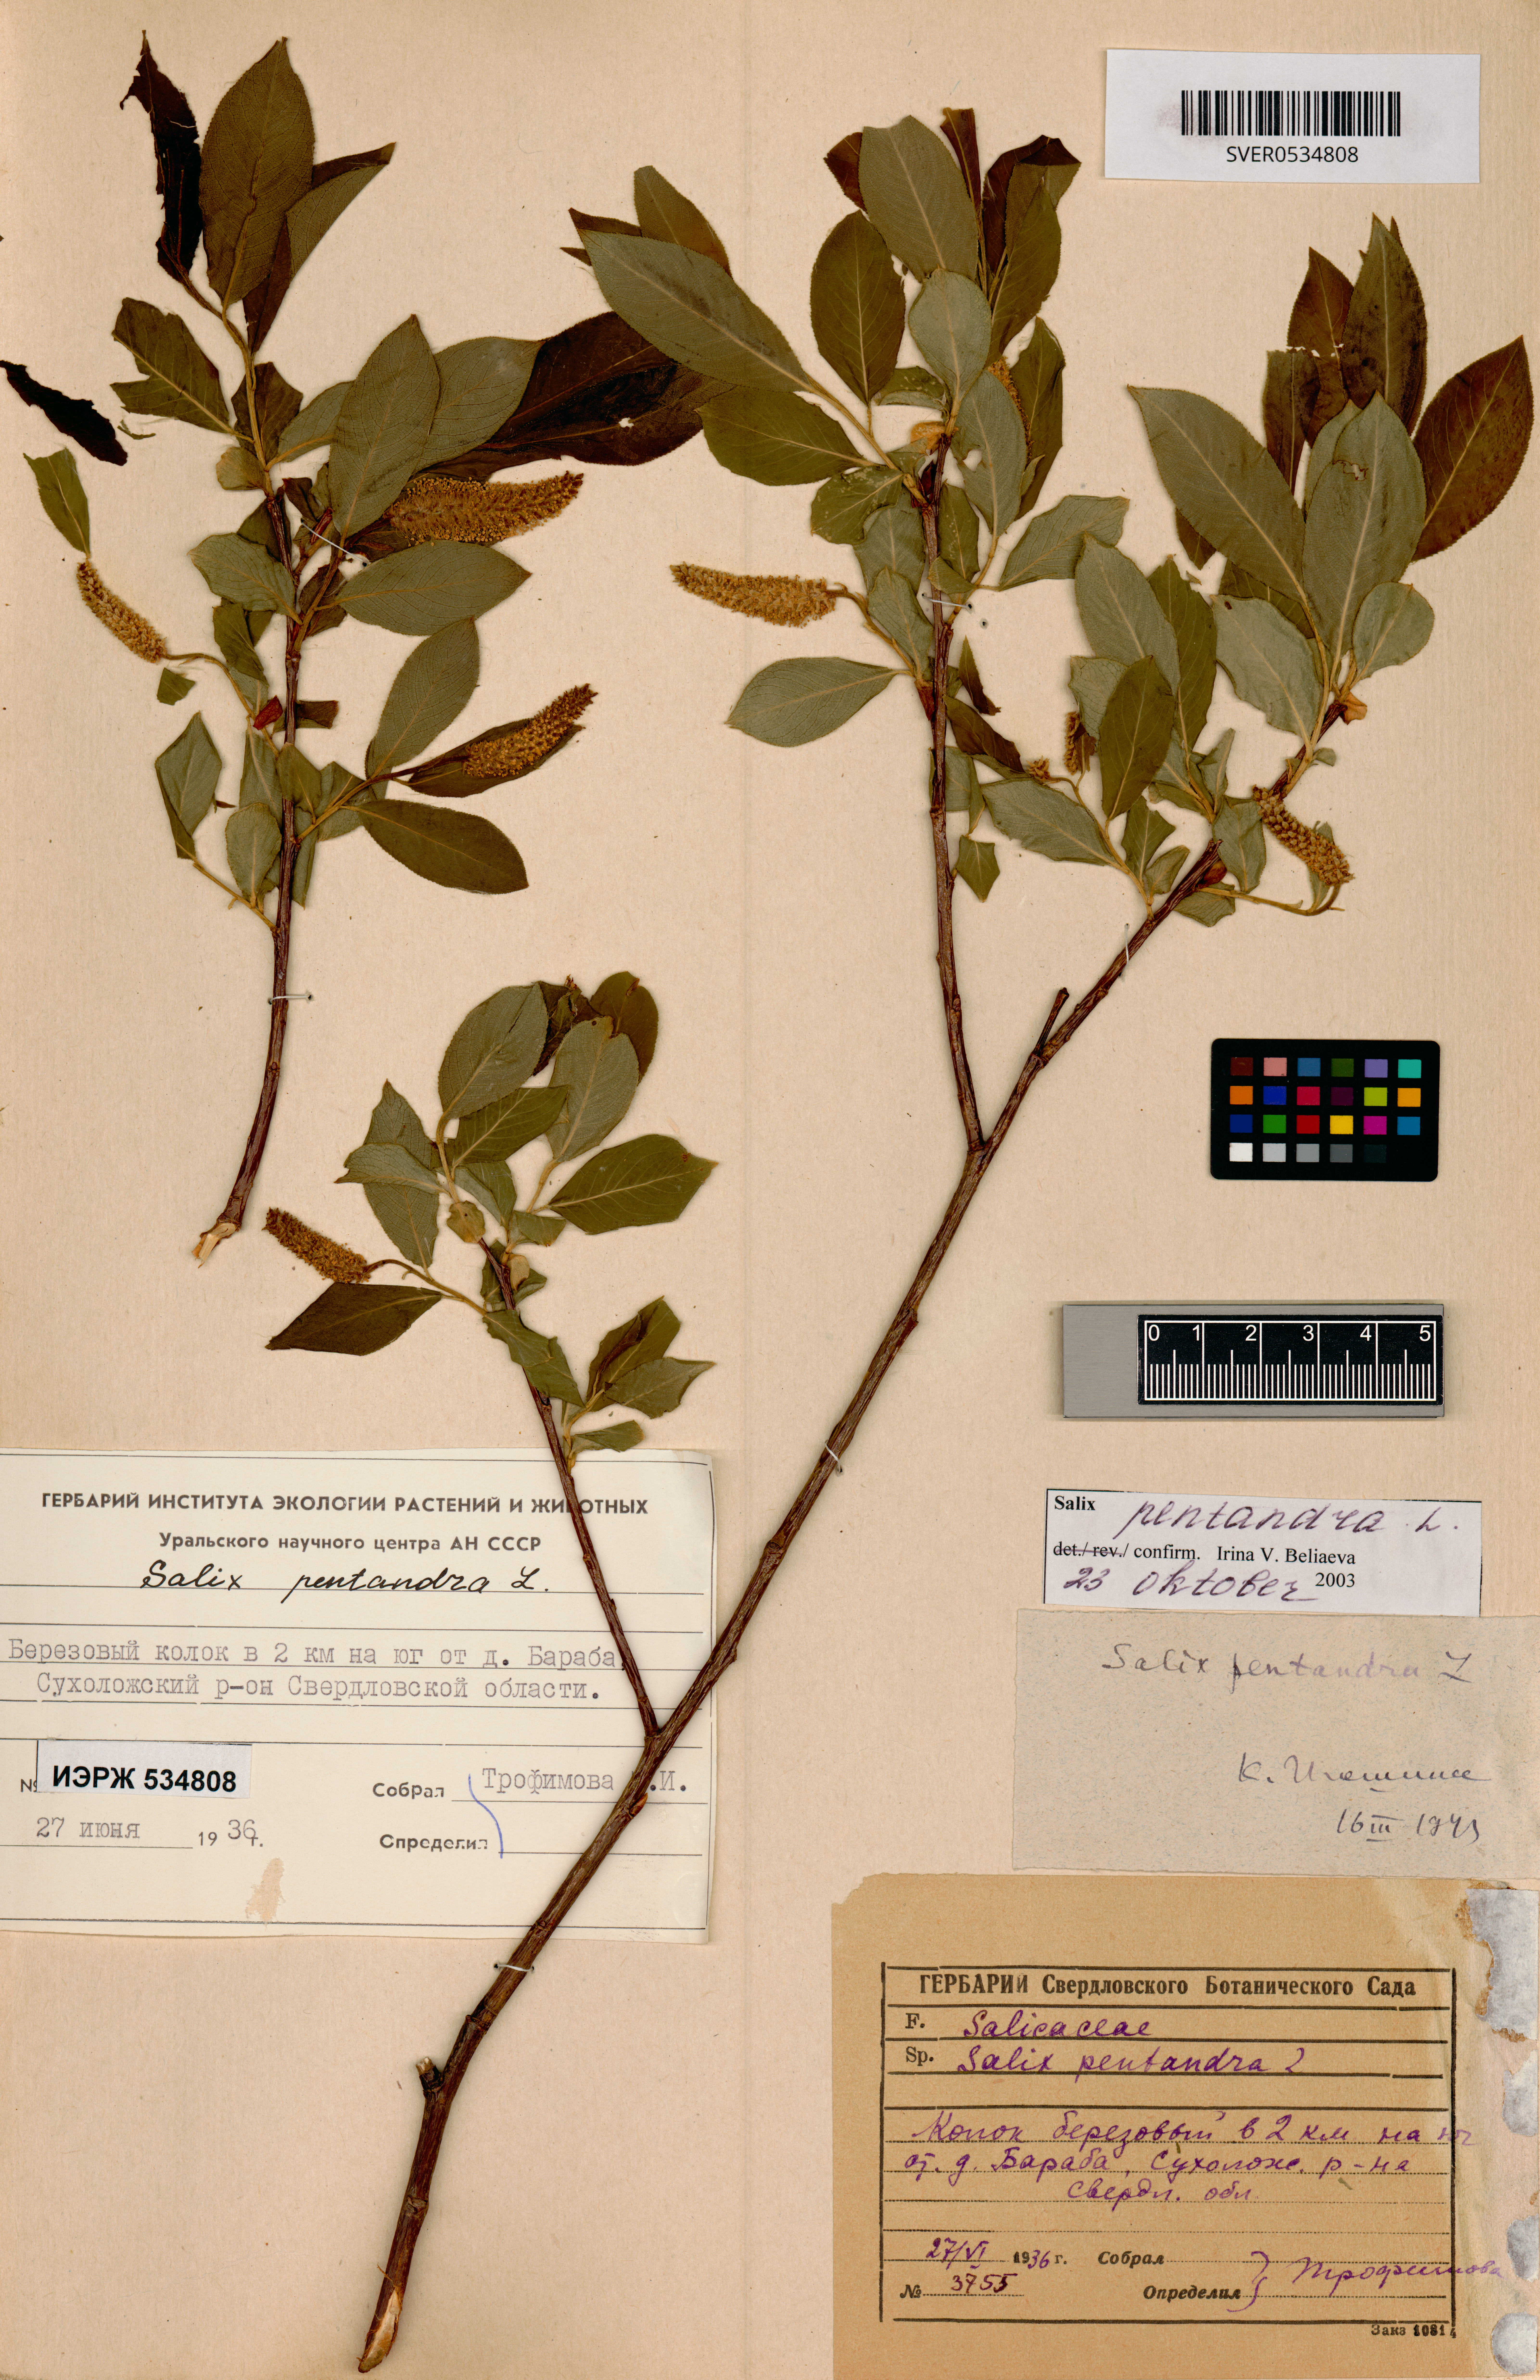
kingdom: Plantae
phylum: Tracheophyta
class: Magnoliopsida
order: Malpighiales
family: Salicaceae
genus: Salix
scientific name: Salix pentandra
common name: Bay willow
